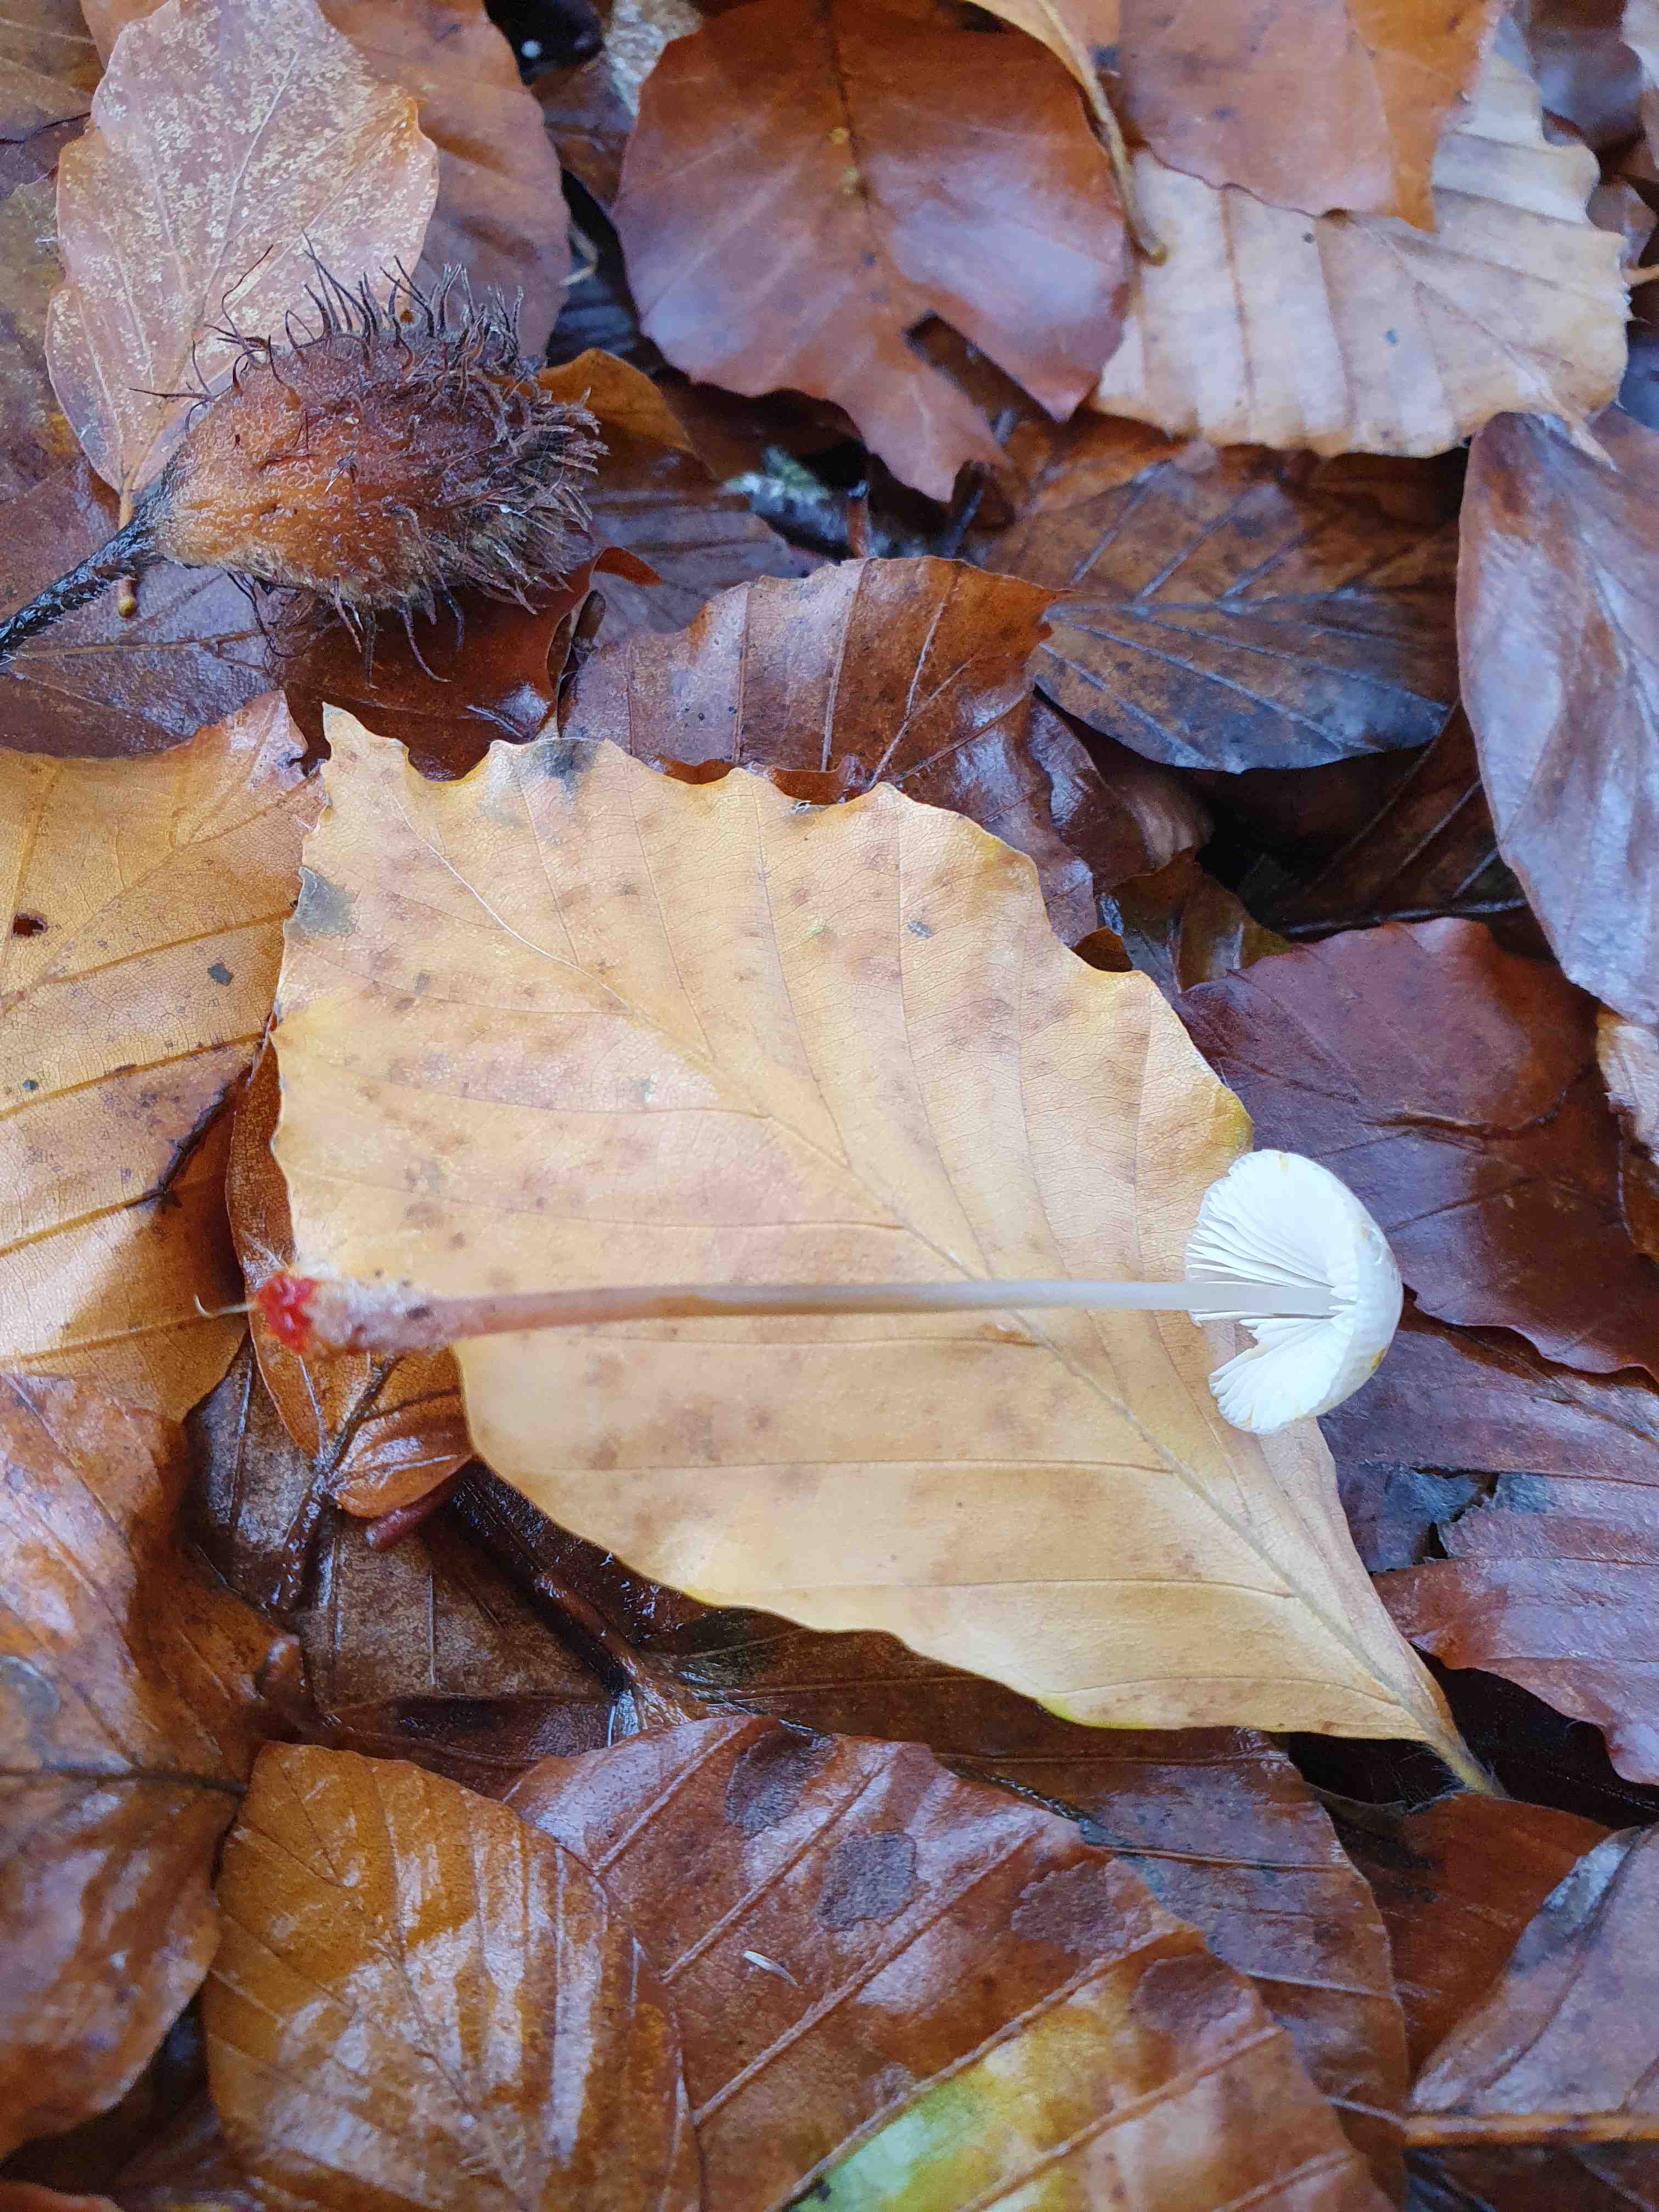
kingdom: Fungi
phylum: Basidiomycota
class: Agaricomycetes
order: Agaricales
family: Mycenaceae
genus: Mycena
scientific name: Mycena crocata
